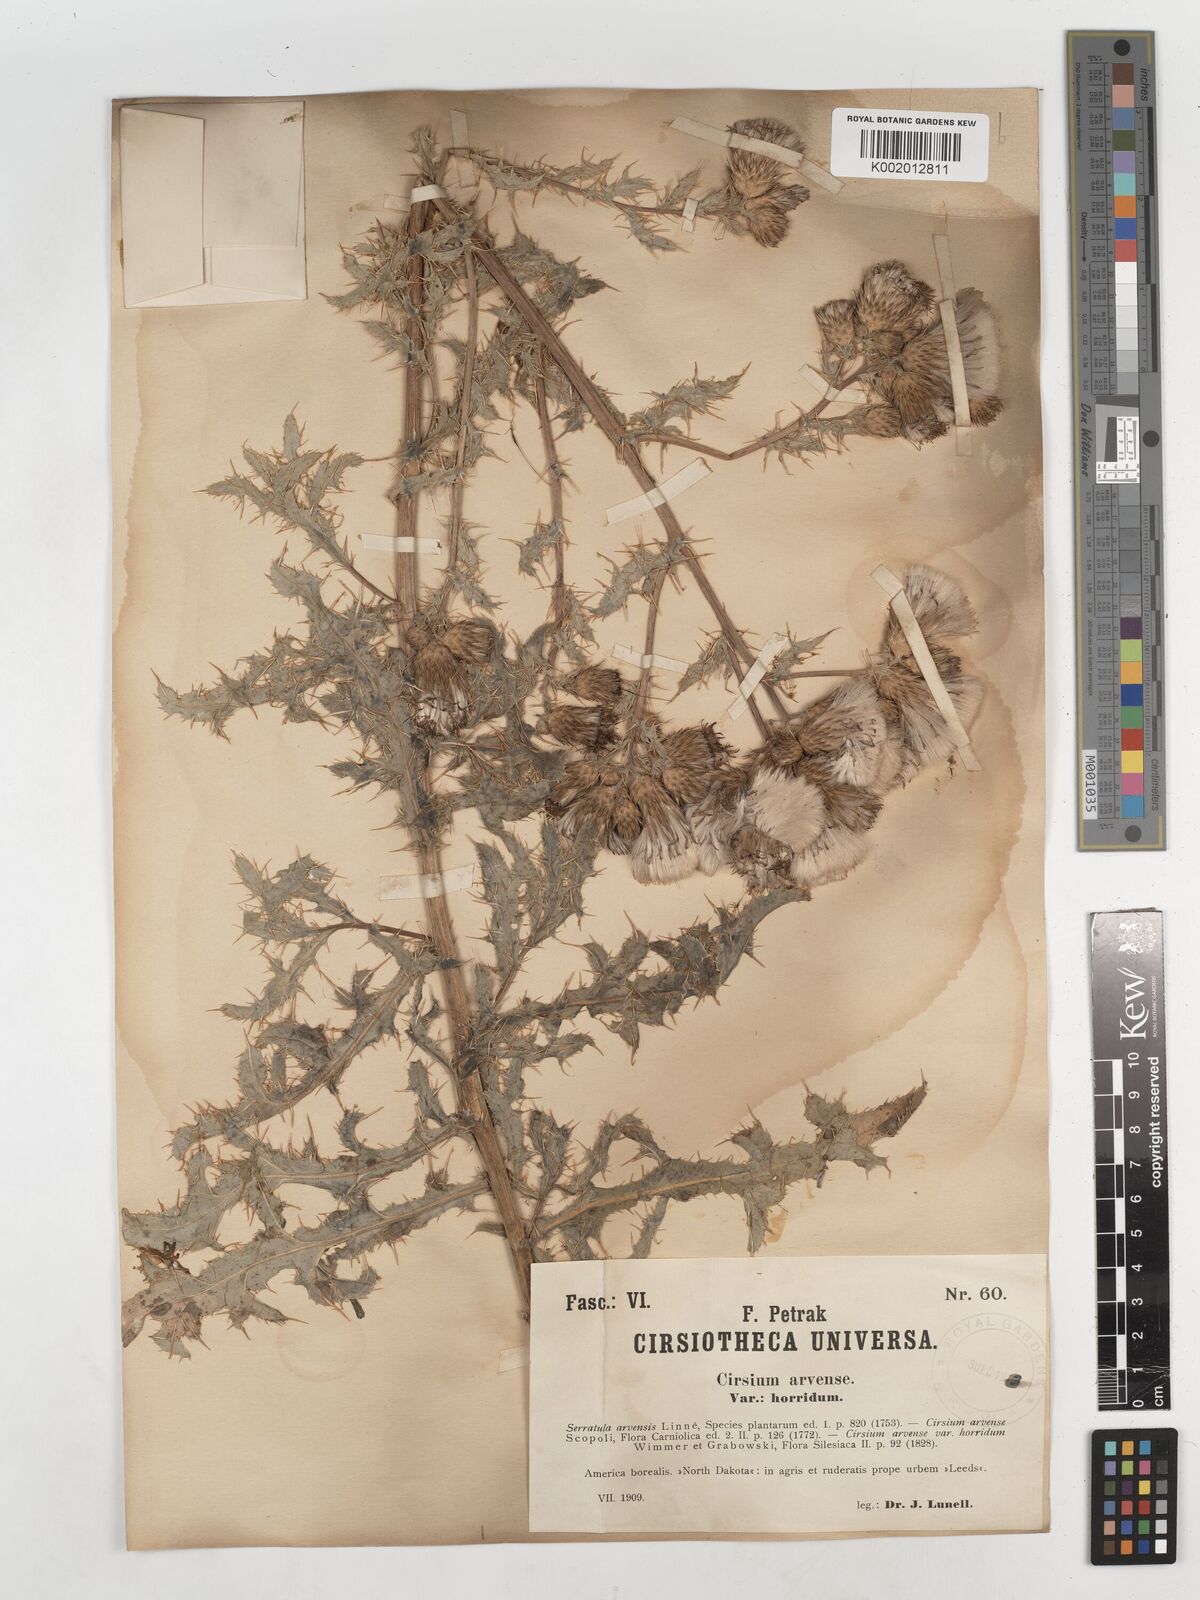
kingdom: Plantae
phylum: Tracheophyta
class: Magnoliopsida
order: Asterales
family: Asteraceae
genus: Cirsium
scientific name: Cirsium arvense
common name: Creeping thistle
